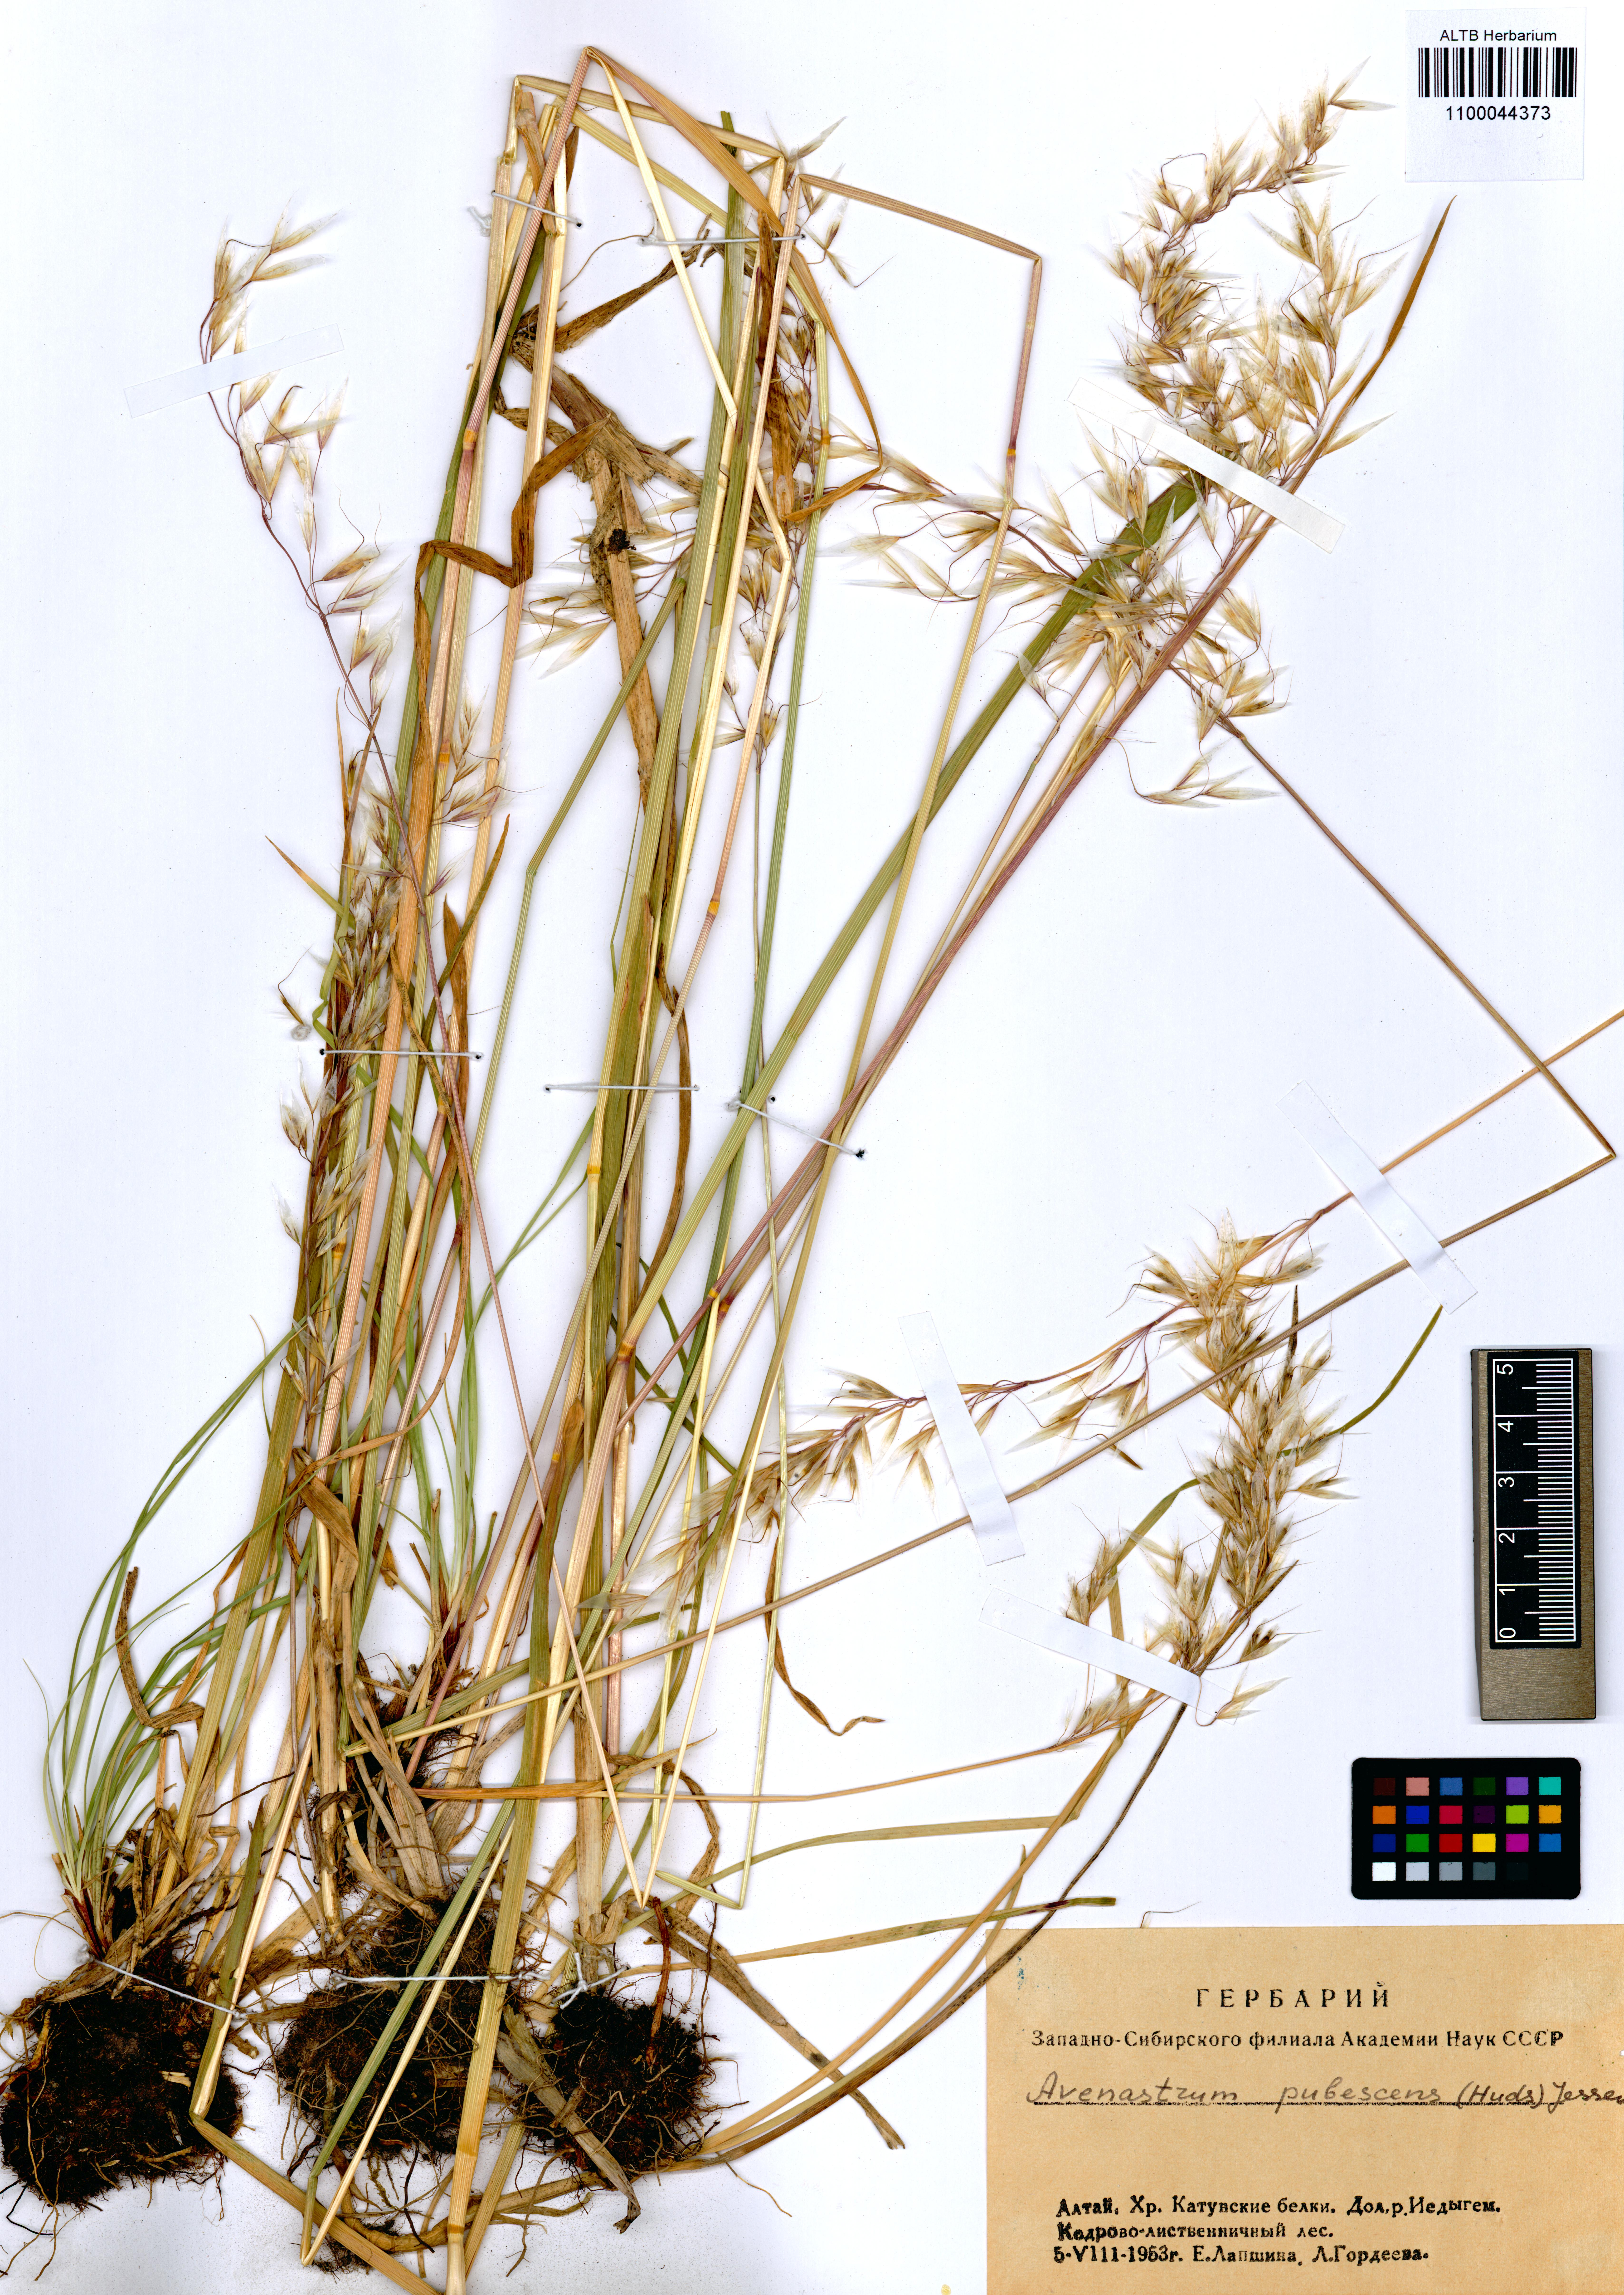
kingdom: Plantae
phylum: Tracheophyta
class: Liliopsida
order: Poales
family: Poaceae
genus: Avenula
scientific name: Avenula pubescens
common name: Downy alpine oatgrass
